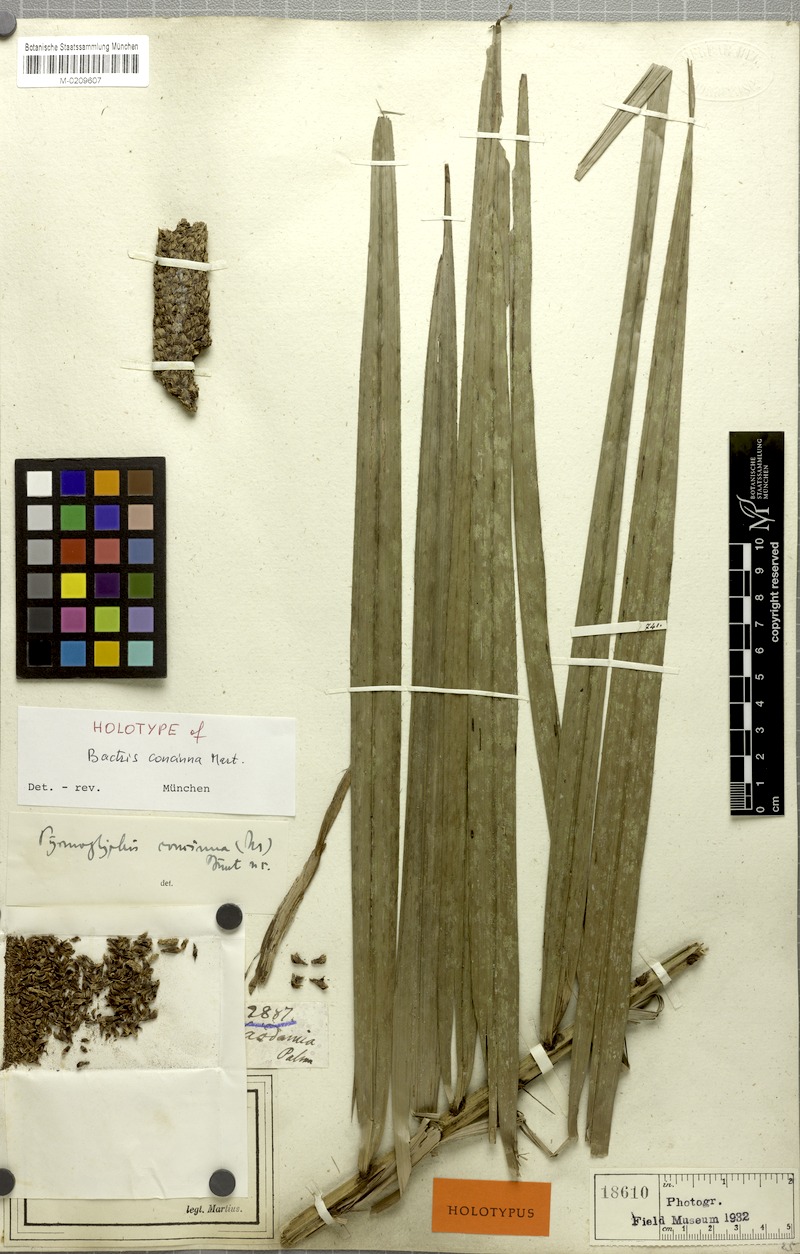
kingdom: Plantae
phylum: Tracheophyta
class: Liliopsida
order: Arecales
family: Arecaceae
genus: Bactris
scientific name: Bactris concinna
